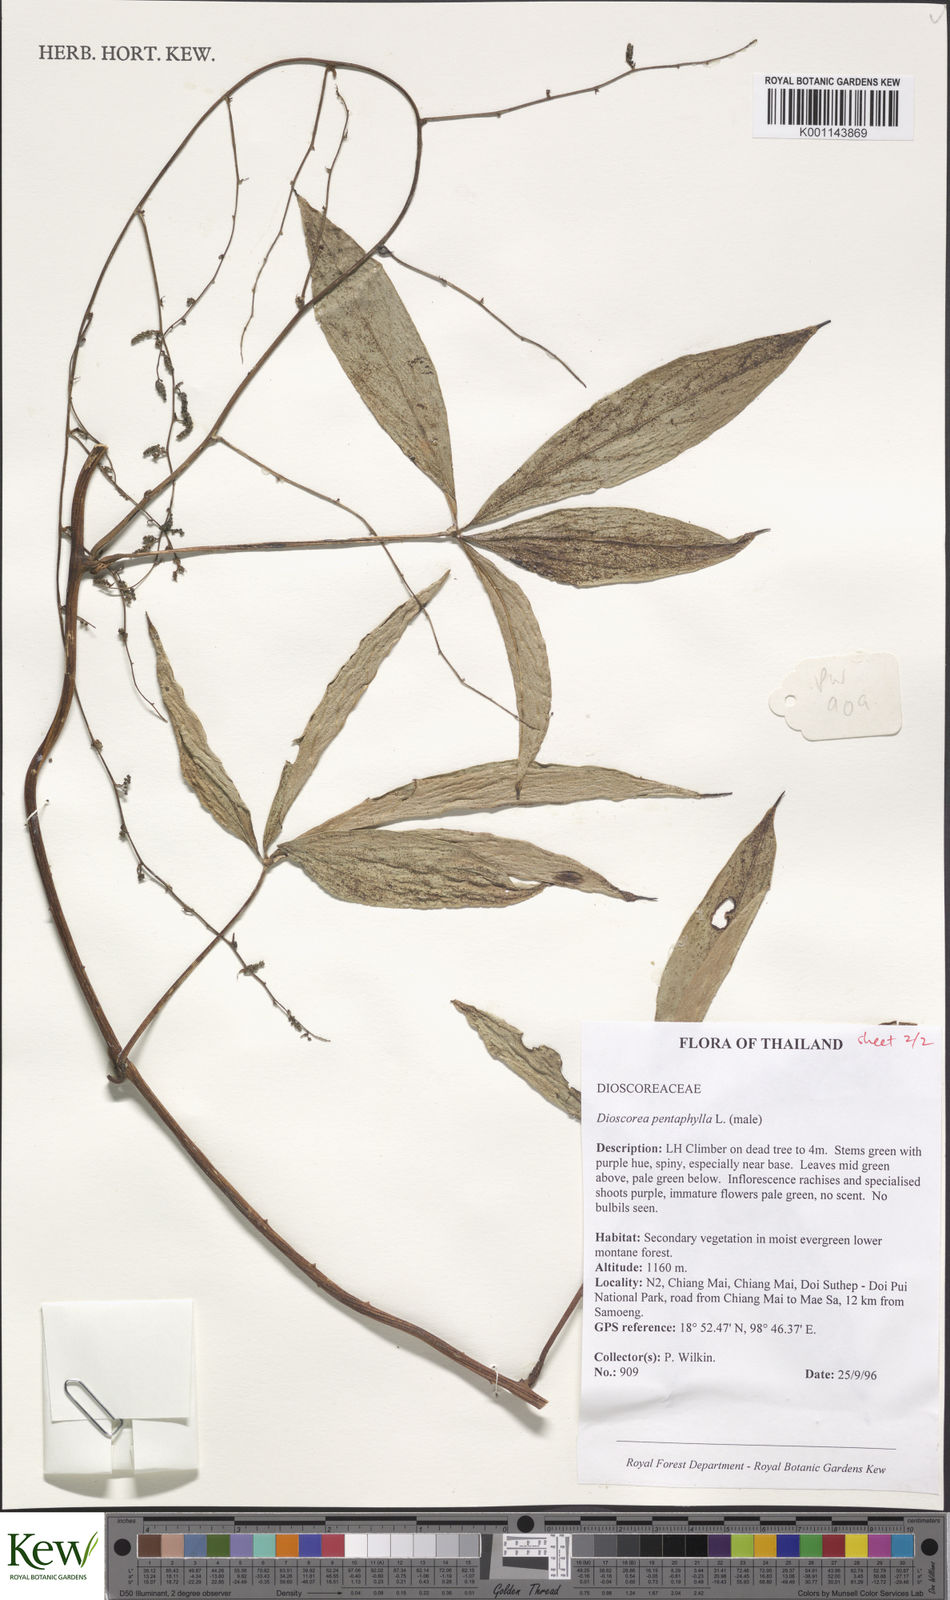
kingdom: Plantae
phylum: Tracheophyta
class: Liliopsida
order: Dioscoreales
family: Dioscoreaceae
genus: Dioscorea
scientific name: Dioscorea pentaphylla
